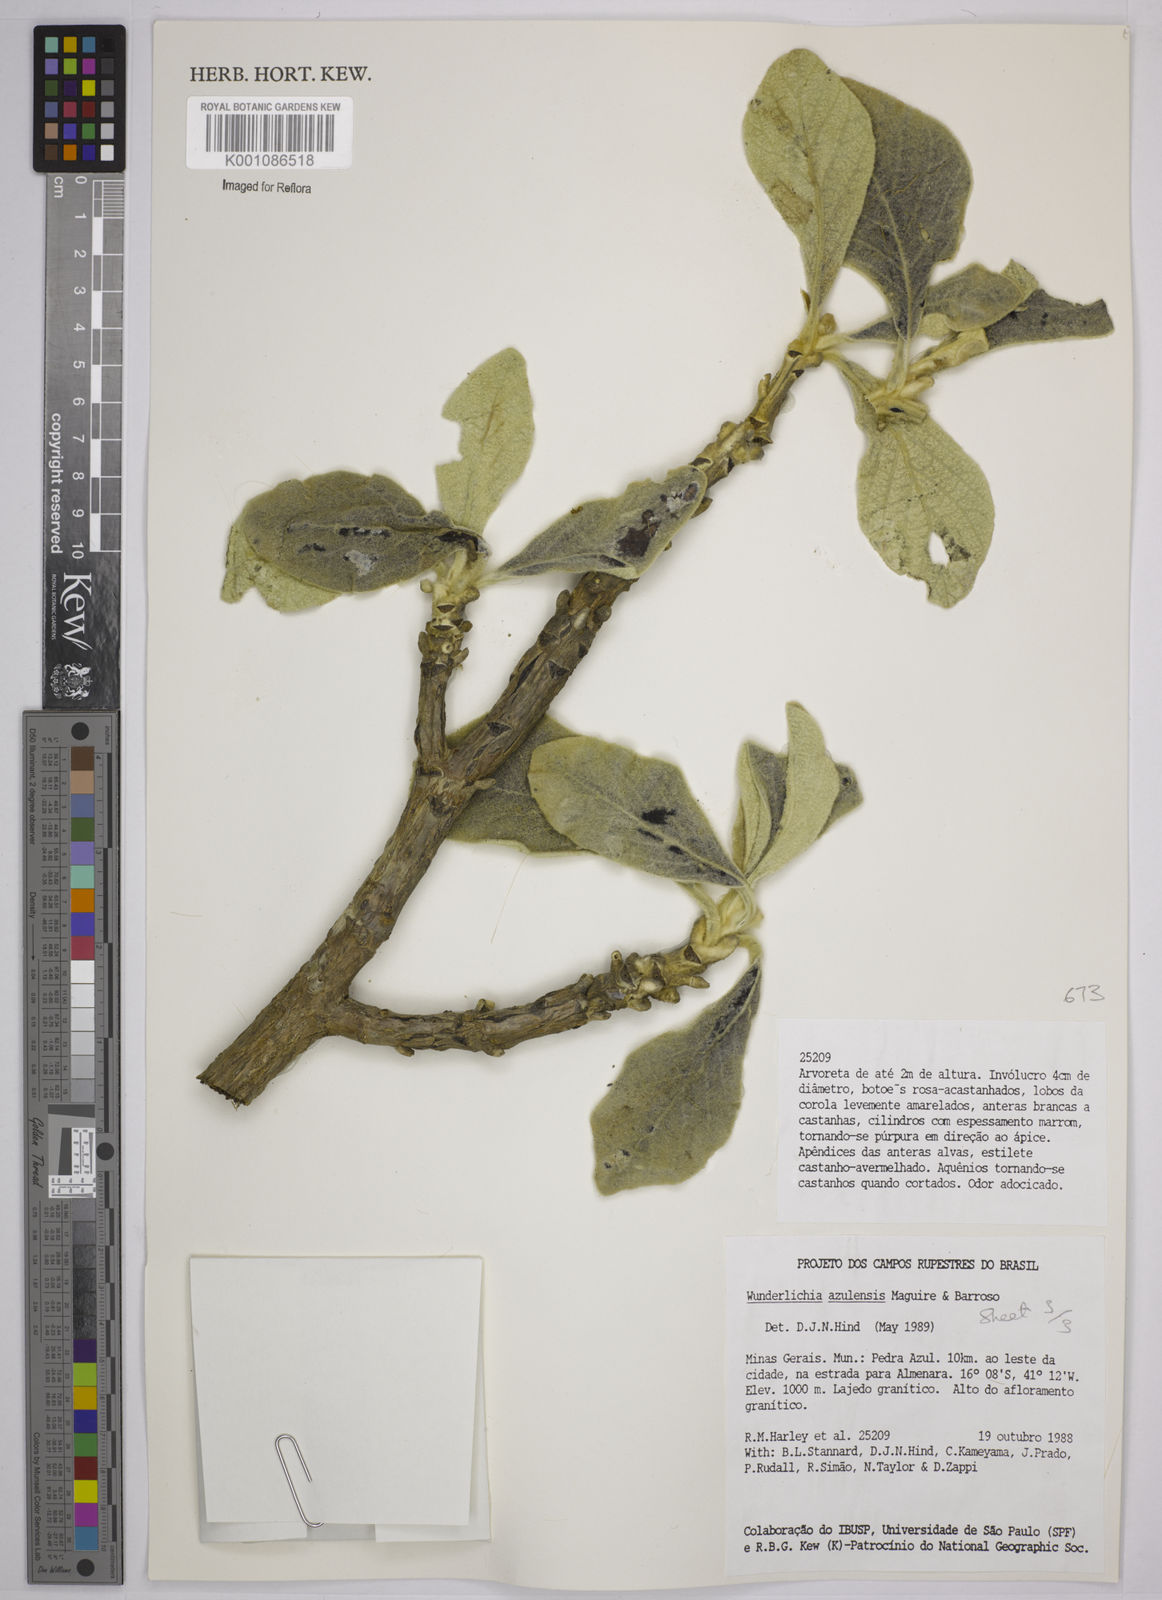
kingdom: Plantae
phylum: Tracheophyta
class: Magnoliopsida
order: Asterales
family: Asteraceae
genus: Wunderlichia
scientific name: Wunderlichia azulensis
